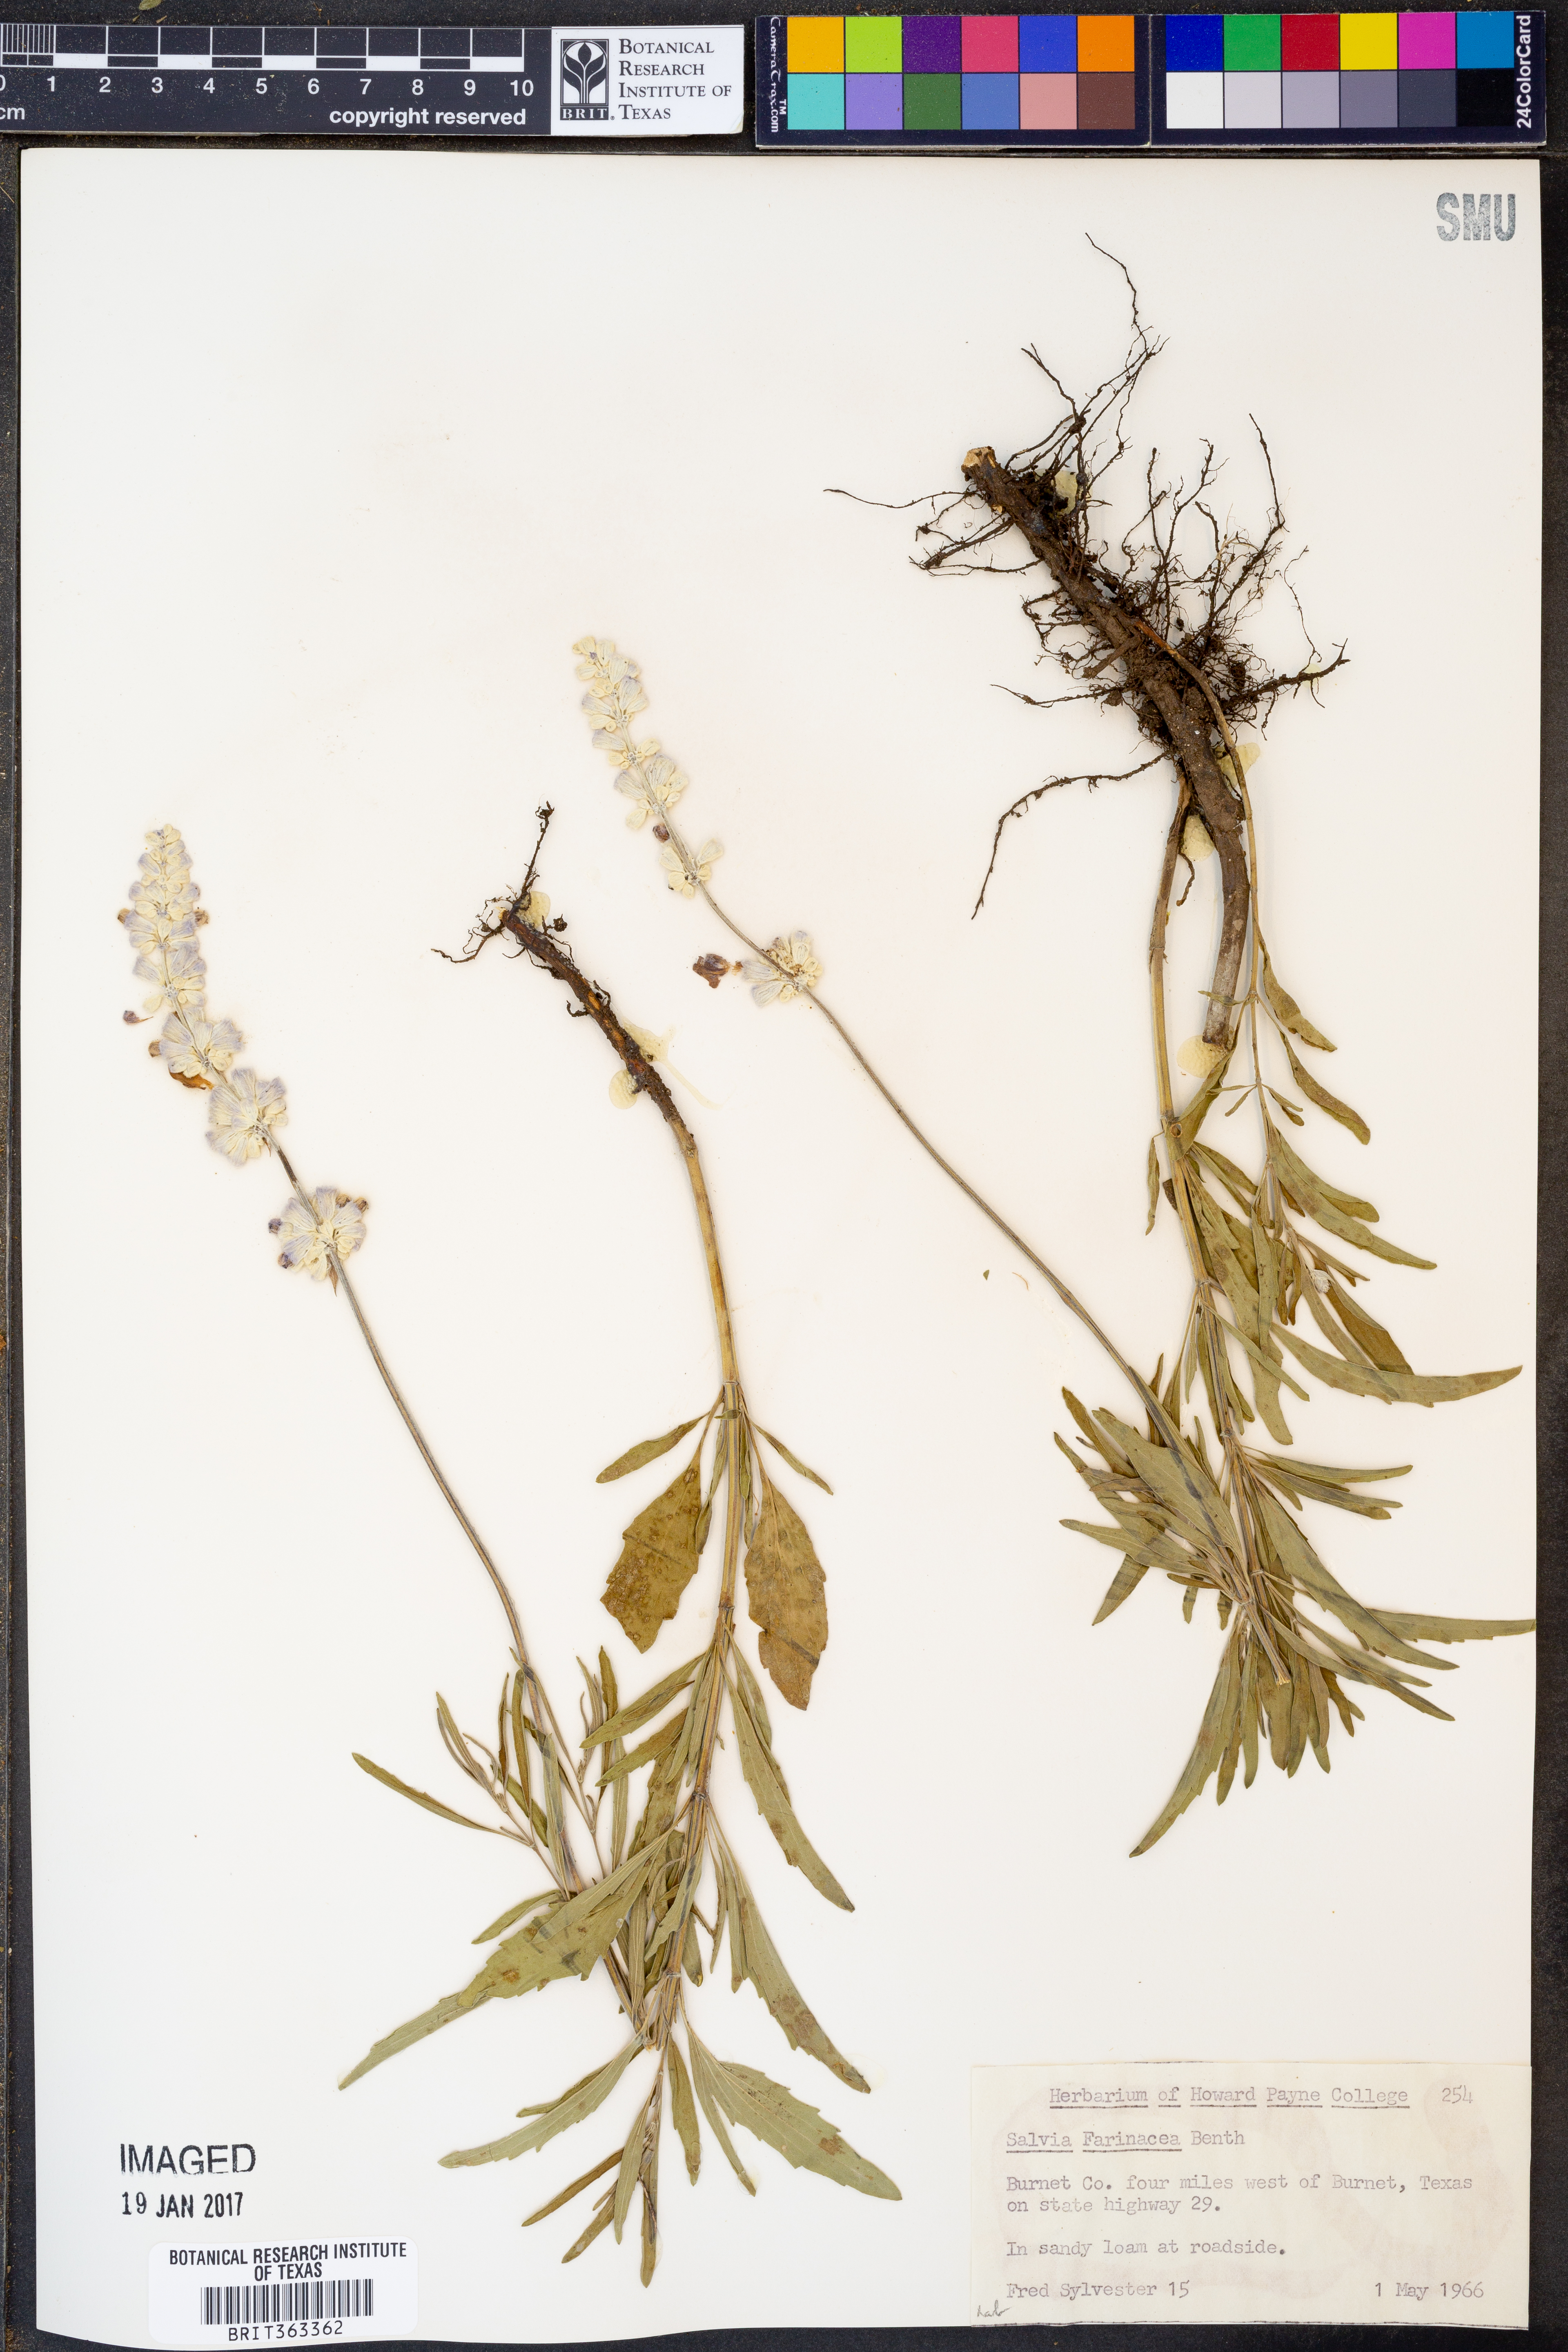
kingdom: Plantae
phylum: Tracheophyta
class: Magnoliopsida
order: Lamiales
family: Lamiaceae
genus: Salvia
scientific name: Salvia farinacea
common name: Mealy sage
